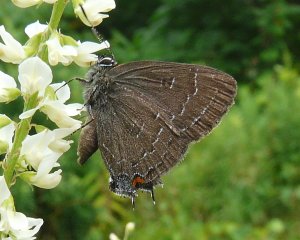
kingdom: Animalia
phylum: Arthropoda
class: Insecta
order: Lepidoptera
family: Lycaenidae
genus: Satyrium
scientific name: Satyrium calanus
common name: Banded Hairstreak
